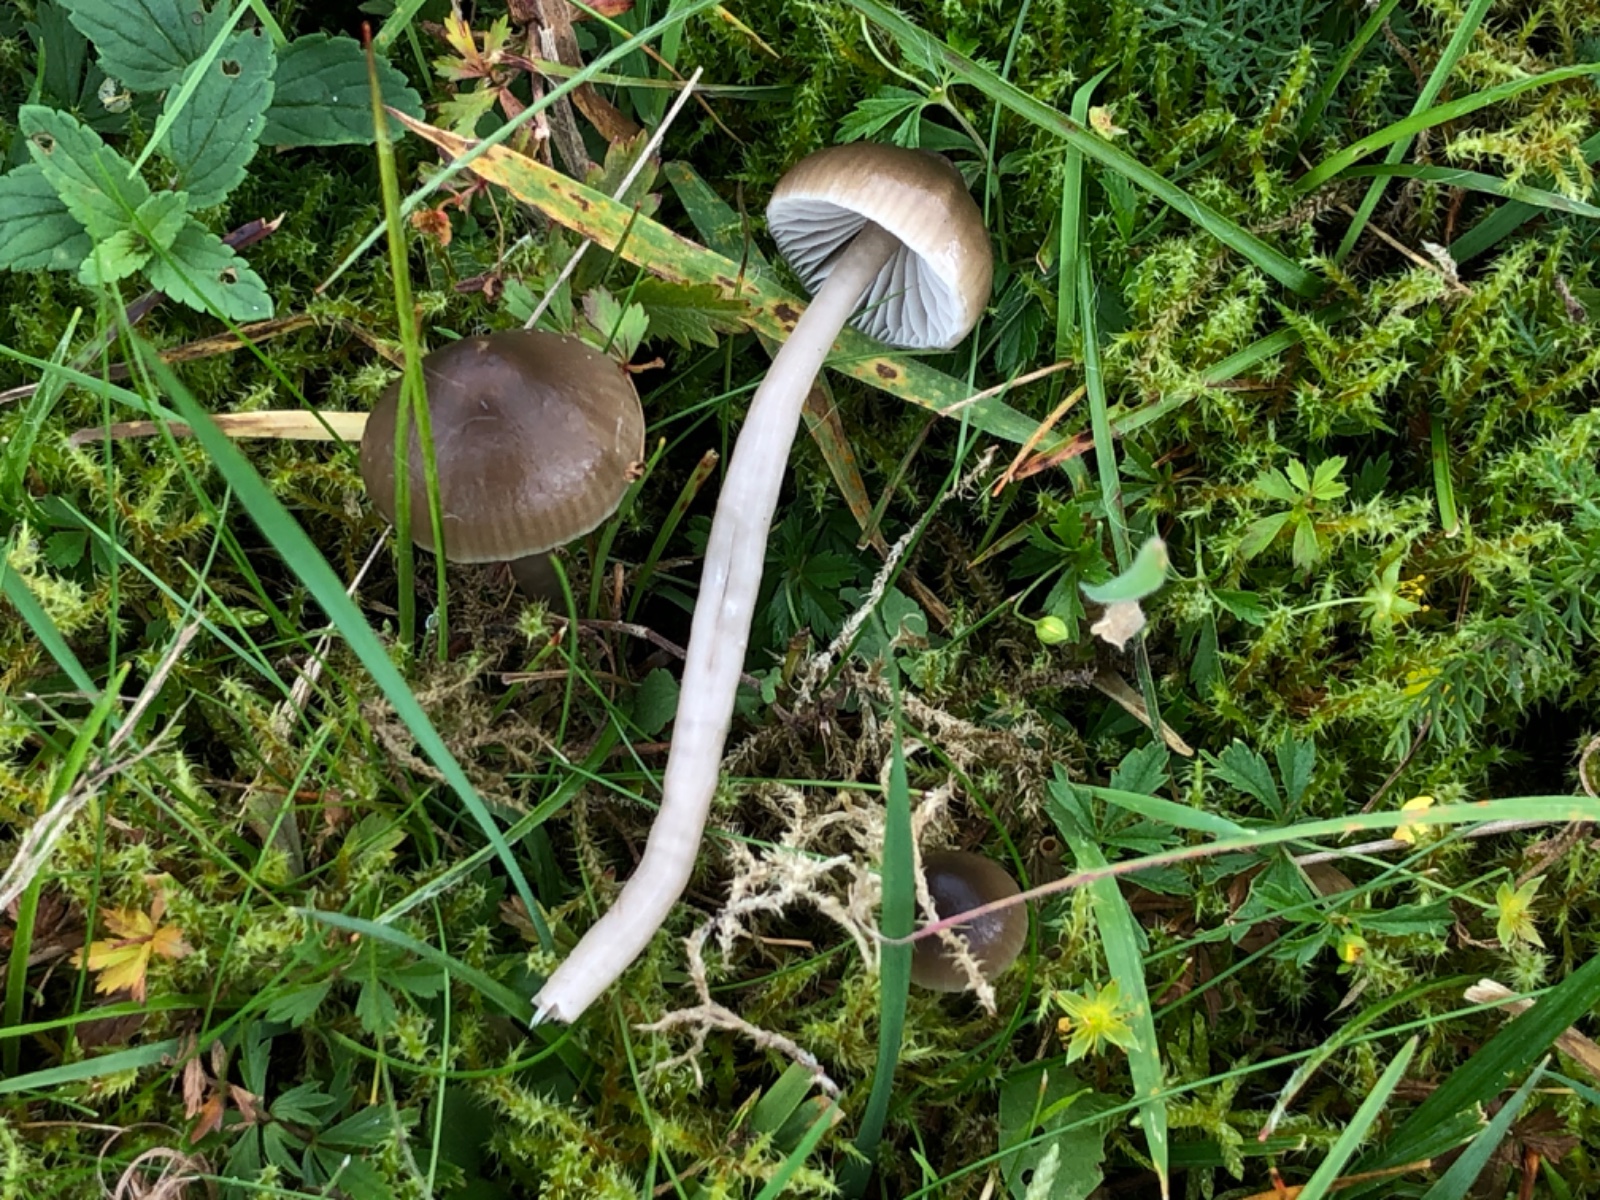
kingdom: Fungi
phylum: Basidiomycota
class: Agaricomycetes
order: Agaricales
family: Hygrophoraceae
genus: Gliophorus
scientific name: Gliophorus irrigatus
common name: slimet vokshat
